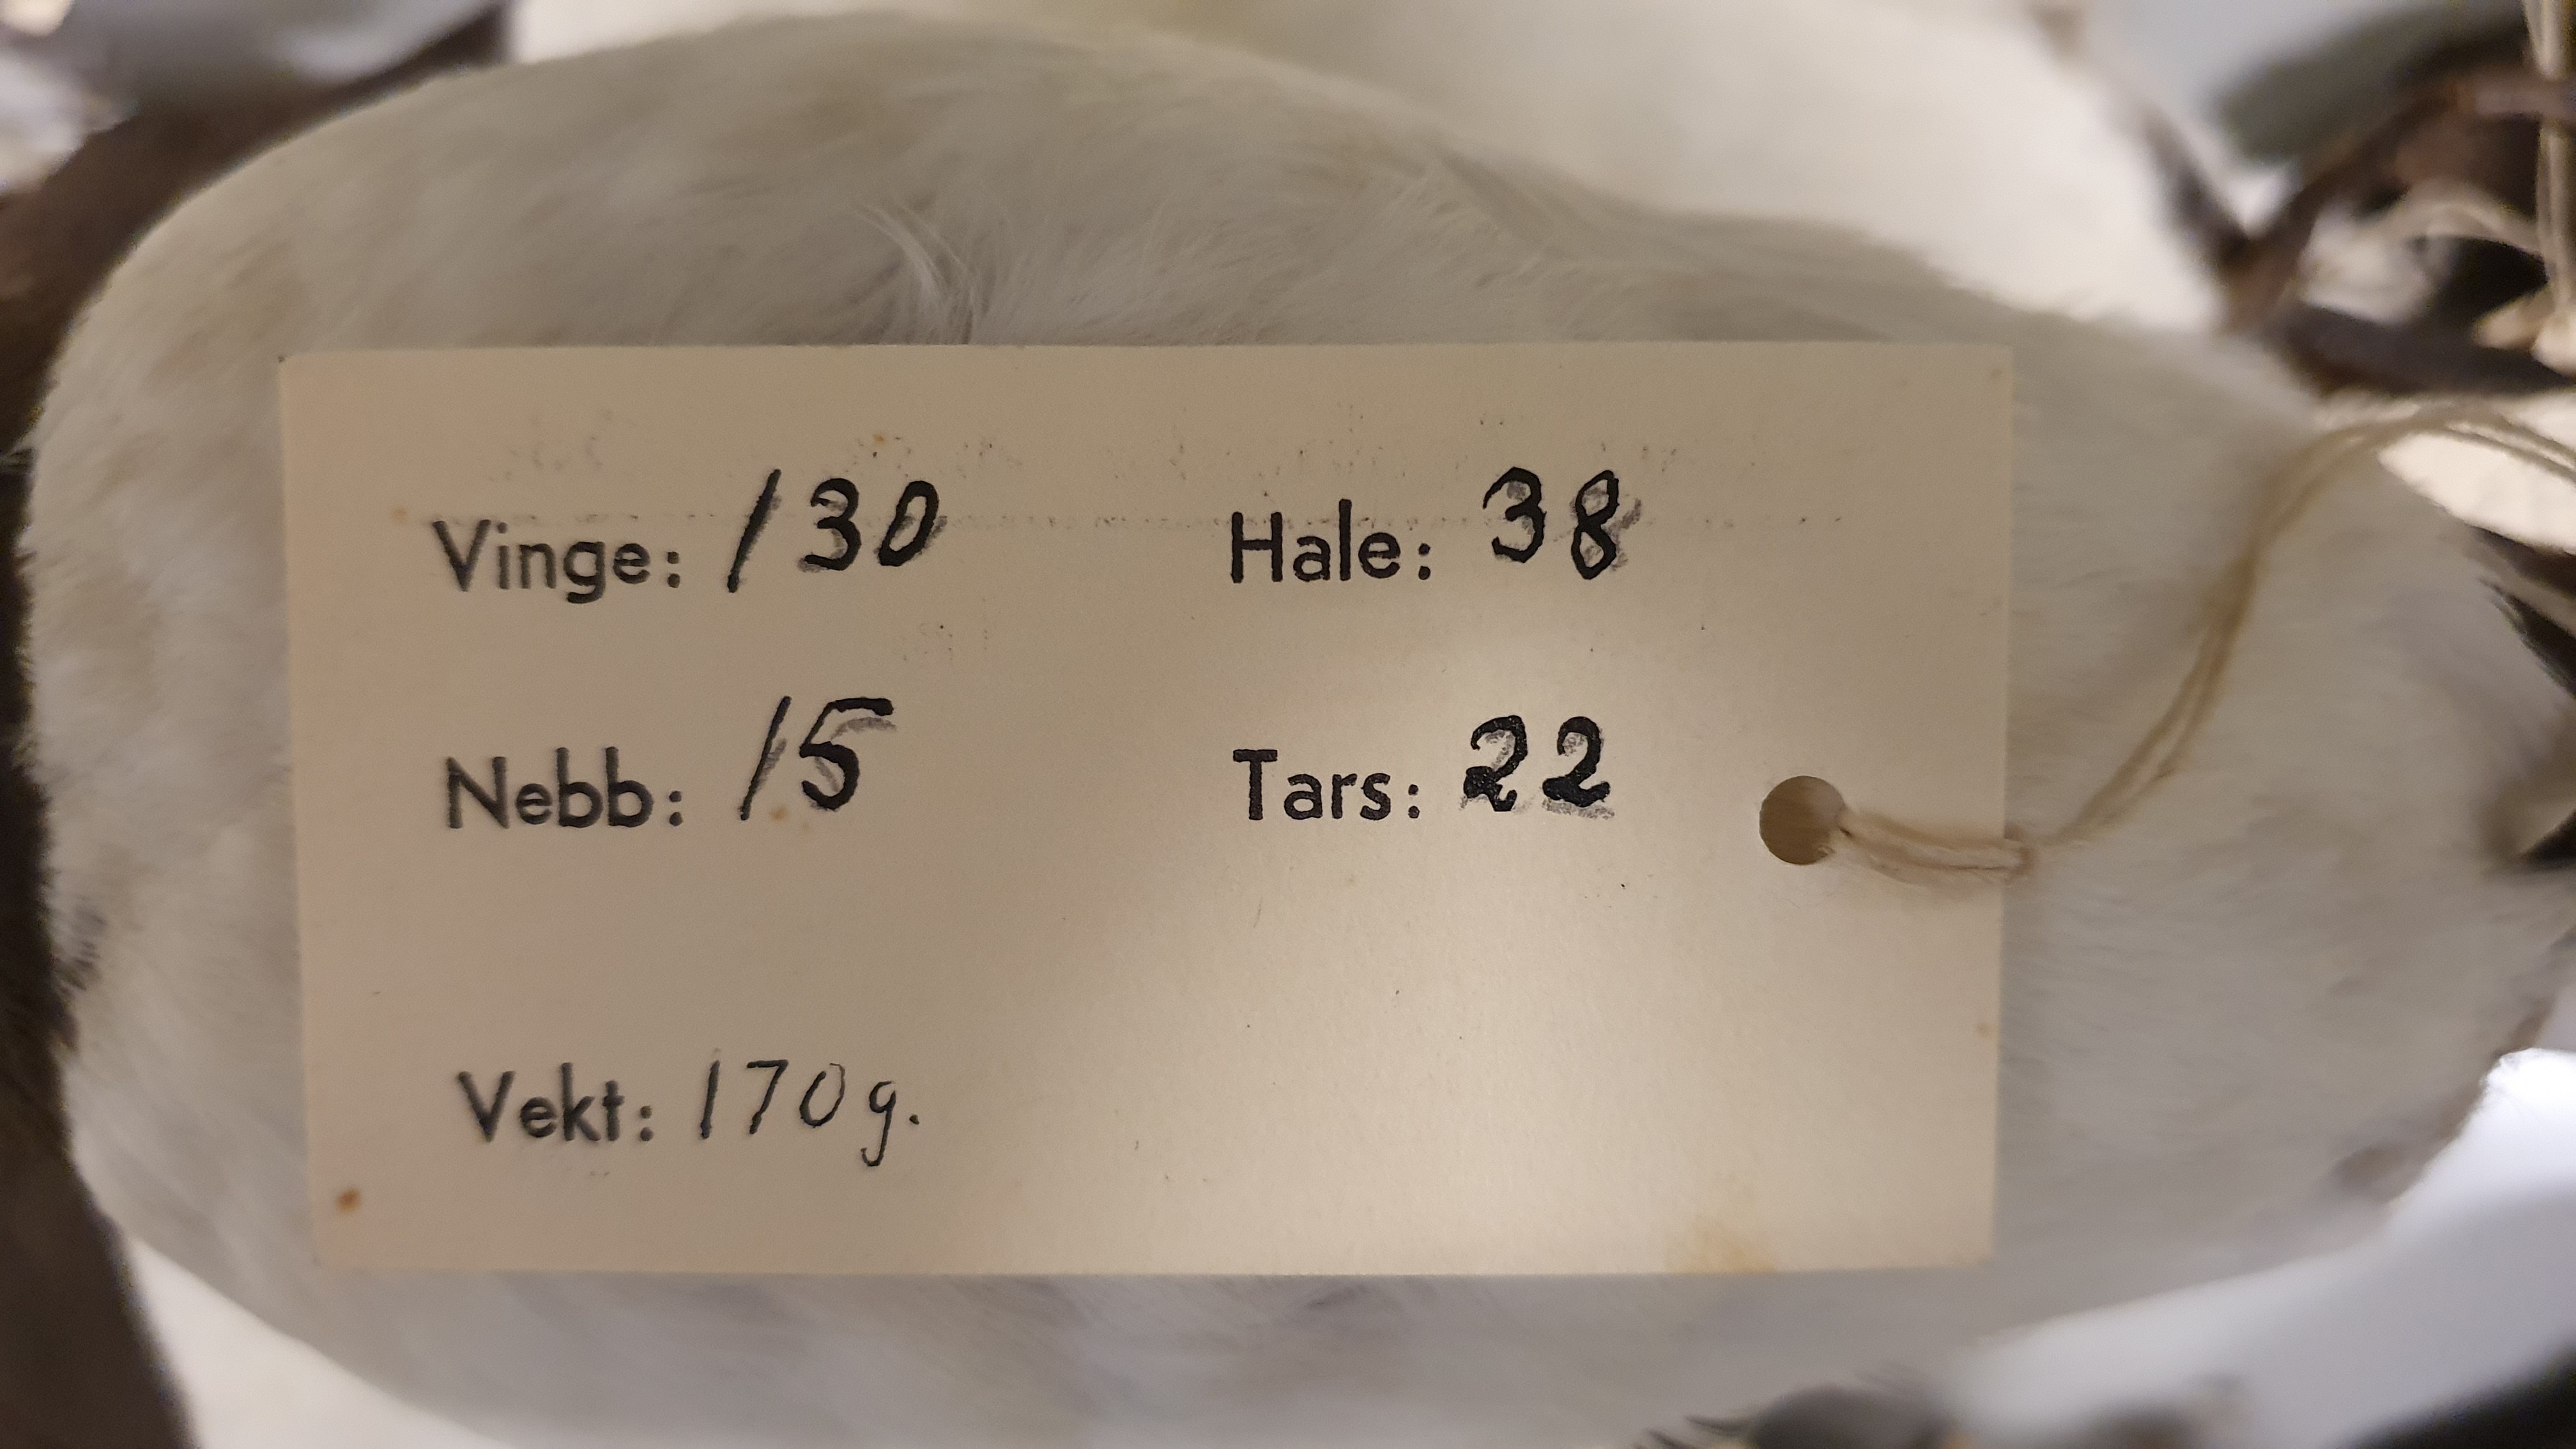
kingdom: Animalia
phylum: Chordata
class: Aves
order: Charadriiformes
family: Alcidae
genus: Alle
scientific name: Alle alle
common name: Little auk
